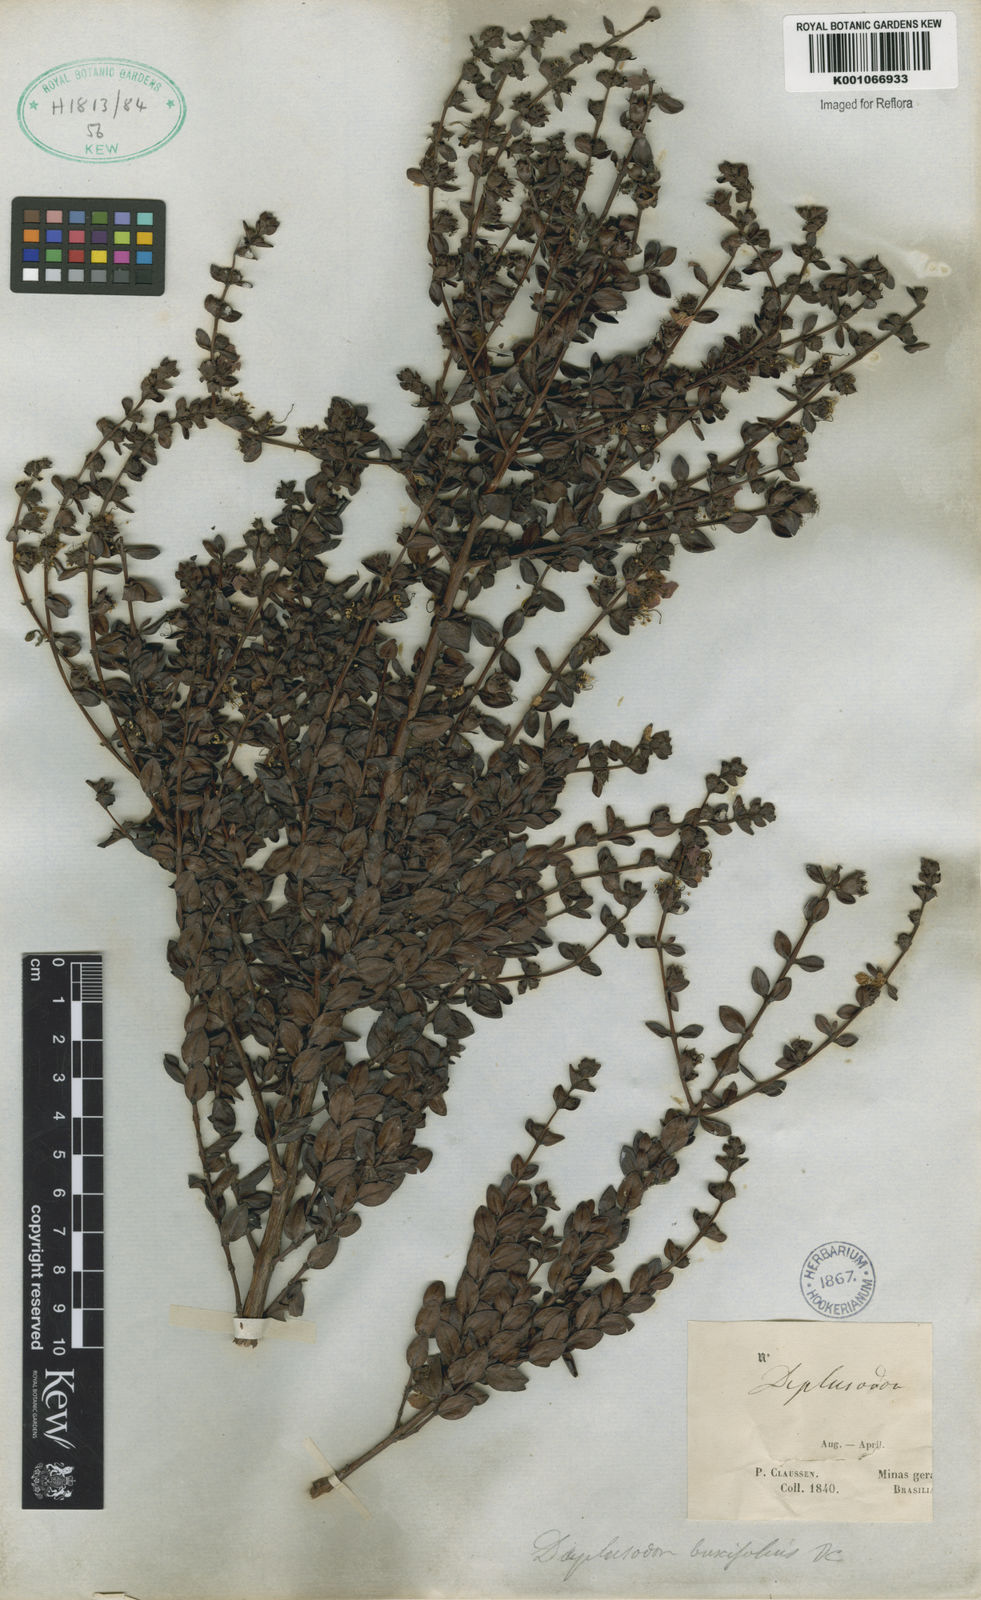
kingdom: Plantae
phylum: Tracheophyta
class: Magnoliopsida
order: Myrtales
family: Lythraceae
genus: Diplusodon
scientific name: Diplusodon buxifolius
